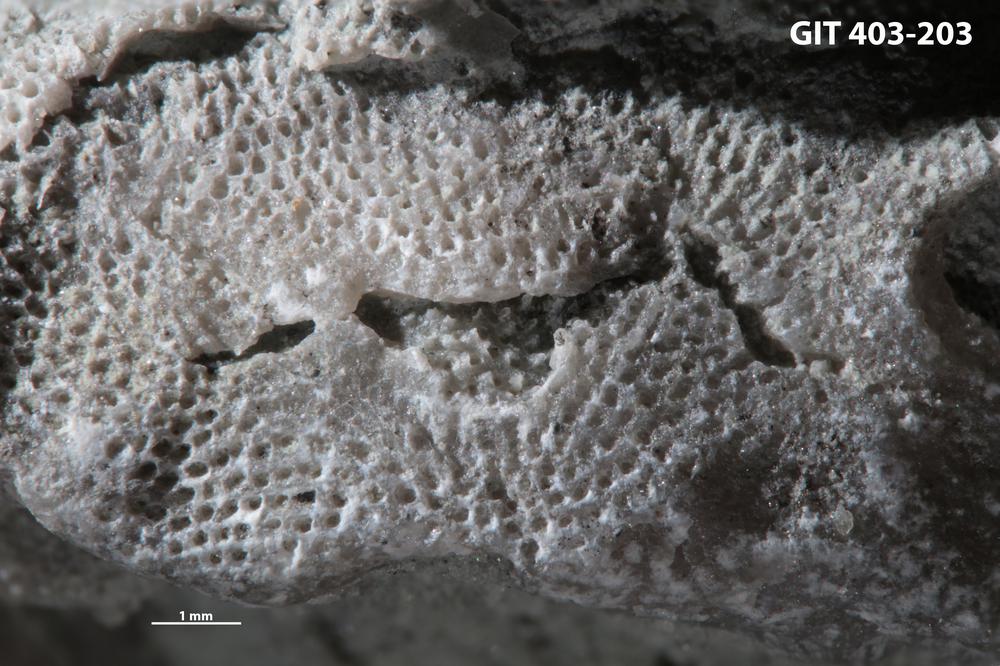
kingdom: Animalia
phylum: Bryozoa
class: Stenolaemata
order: Cystoporida
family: Fistuliporidae
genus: Fistulipora
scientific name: Fistulipora przhidolensis
